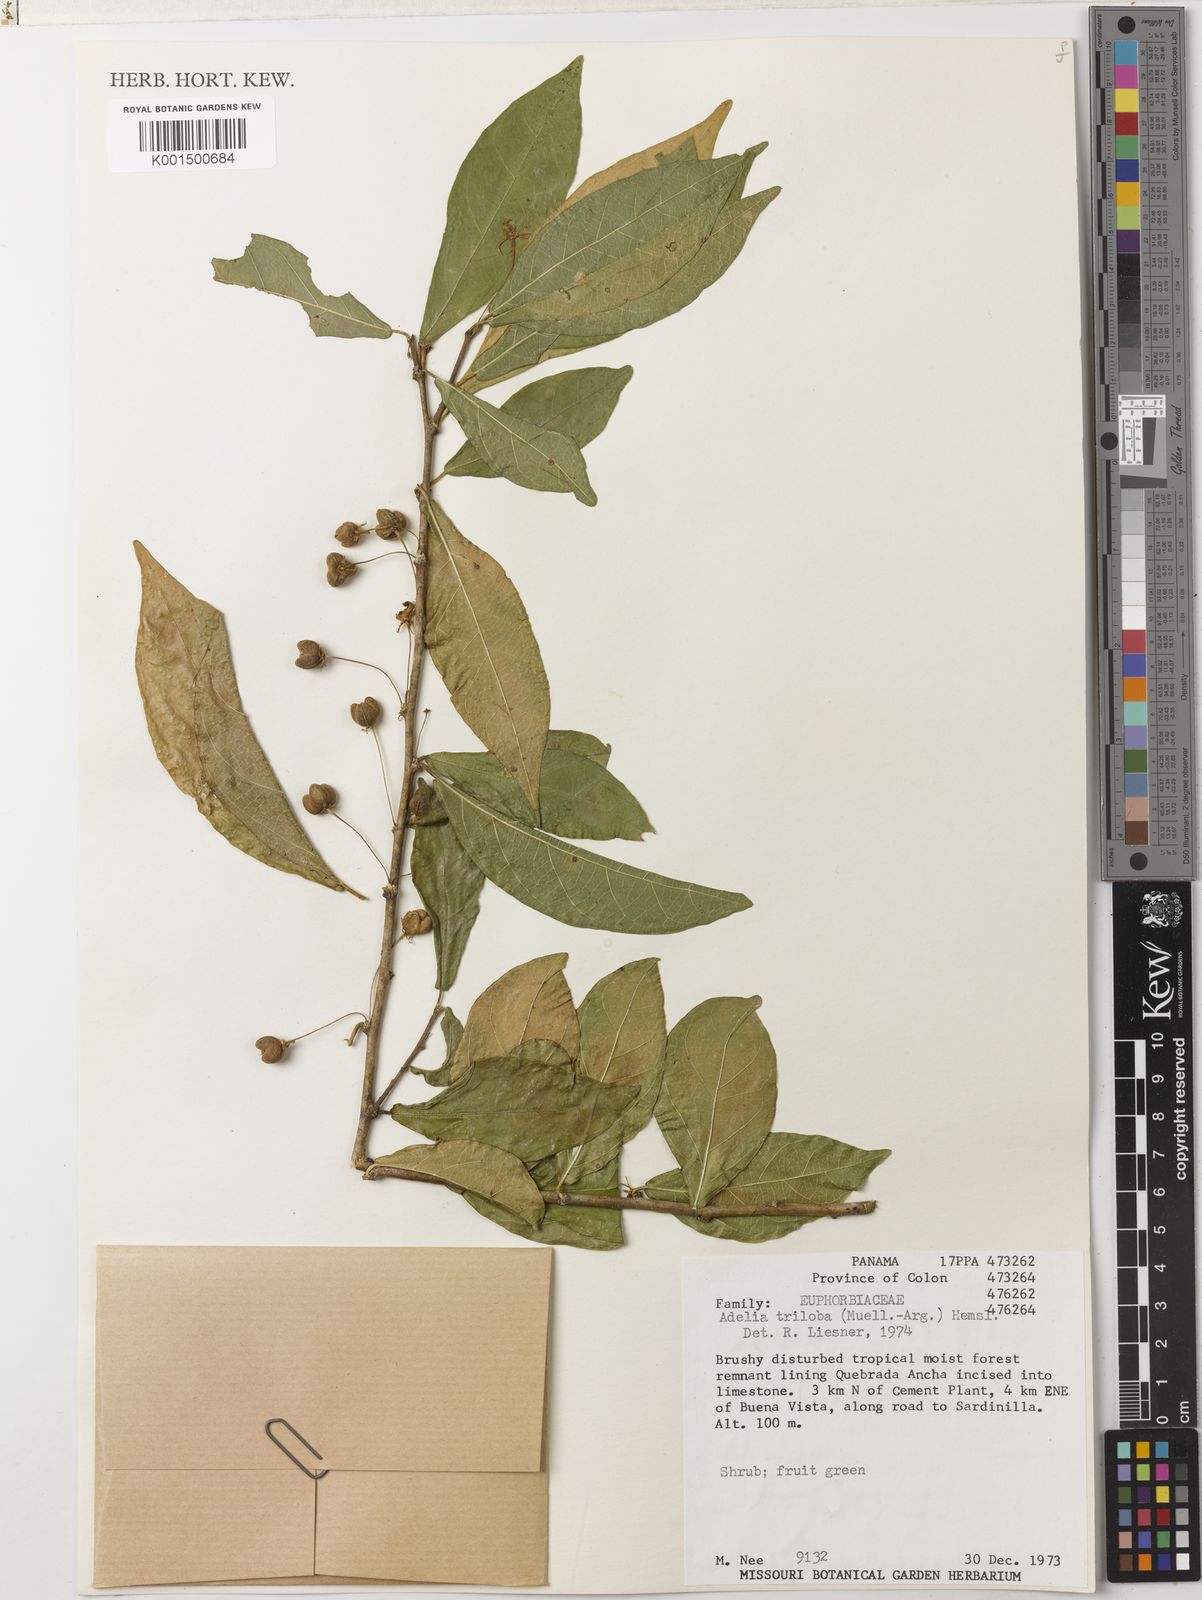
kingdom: Plantae
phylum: Tracheophyta
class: Magnoliopsida
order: Malpighiales
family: Euphorbiaceae
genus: Adelia
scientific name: Adelia triloba
